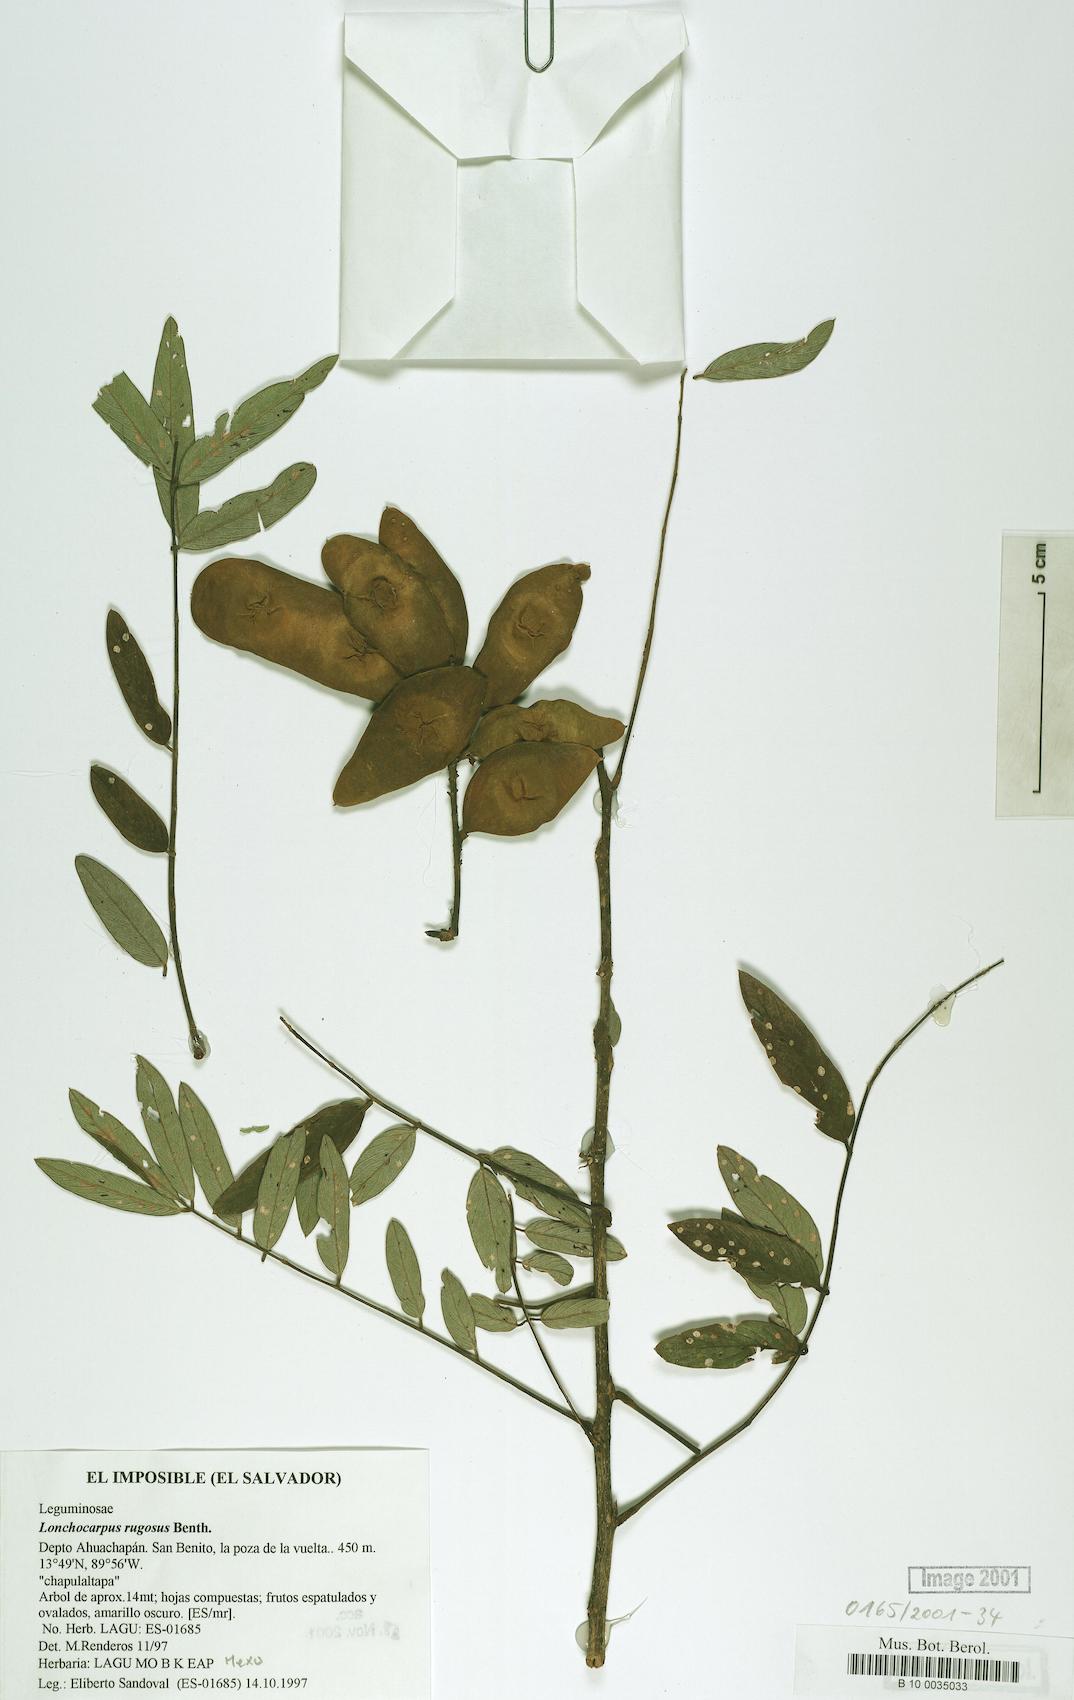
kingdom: Plantae
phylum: Tracheophyta
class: Magnoliopsida
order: Fabales
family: Fabaceae
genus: Lonchocarpus
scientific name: Lonchocarpus rugosus
